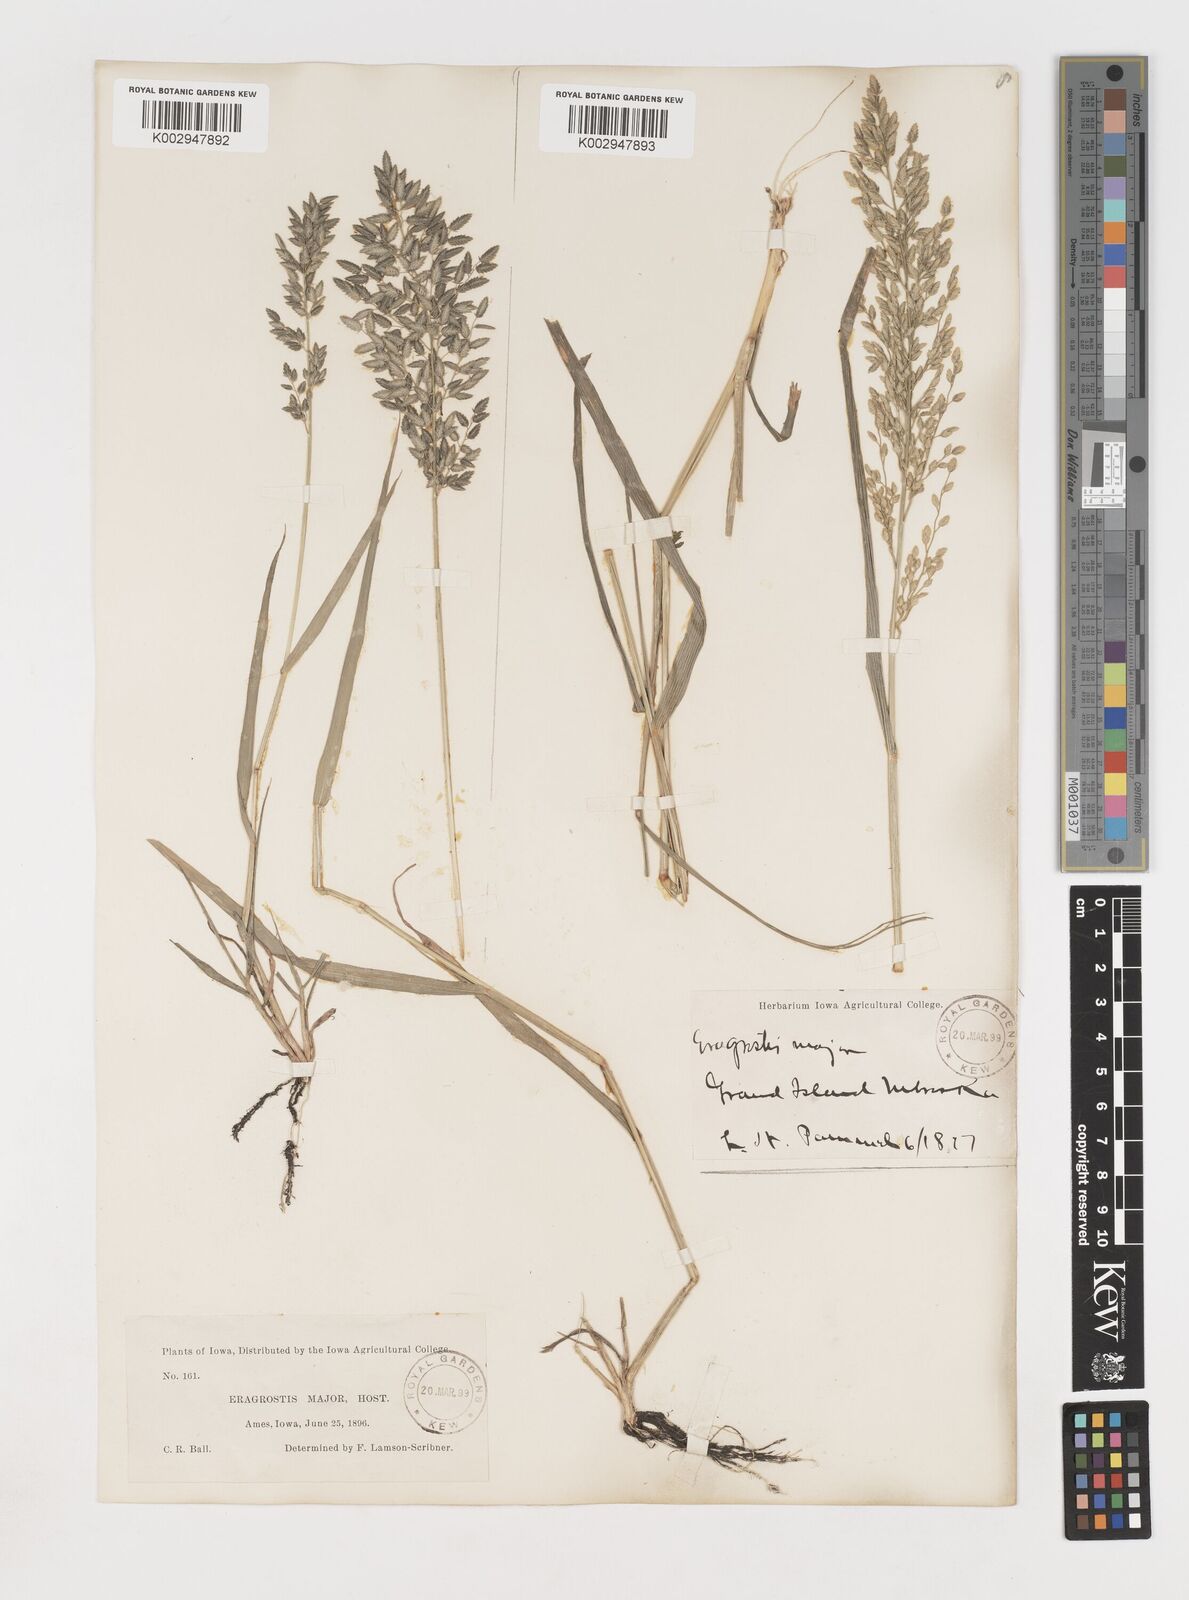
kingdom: Plantae
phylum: Tracheophyta
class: Liliopsida
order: Poales
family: Poaceae
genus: Eragrostis
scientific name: Eragrostis cilianensis
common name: Stinkgrass
